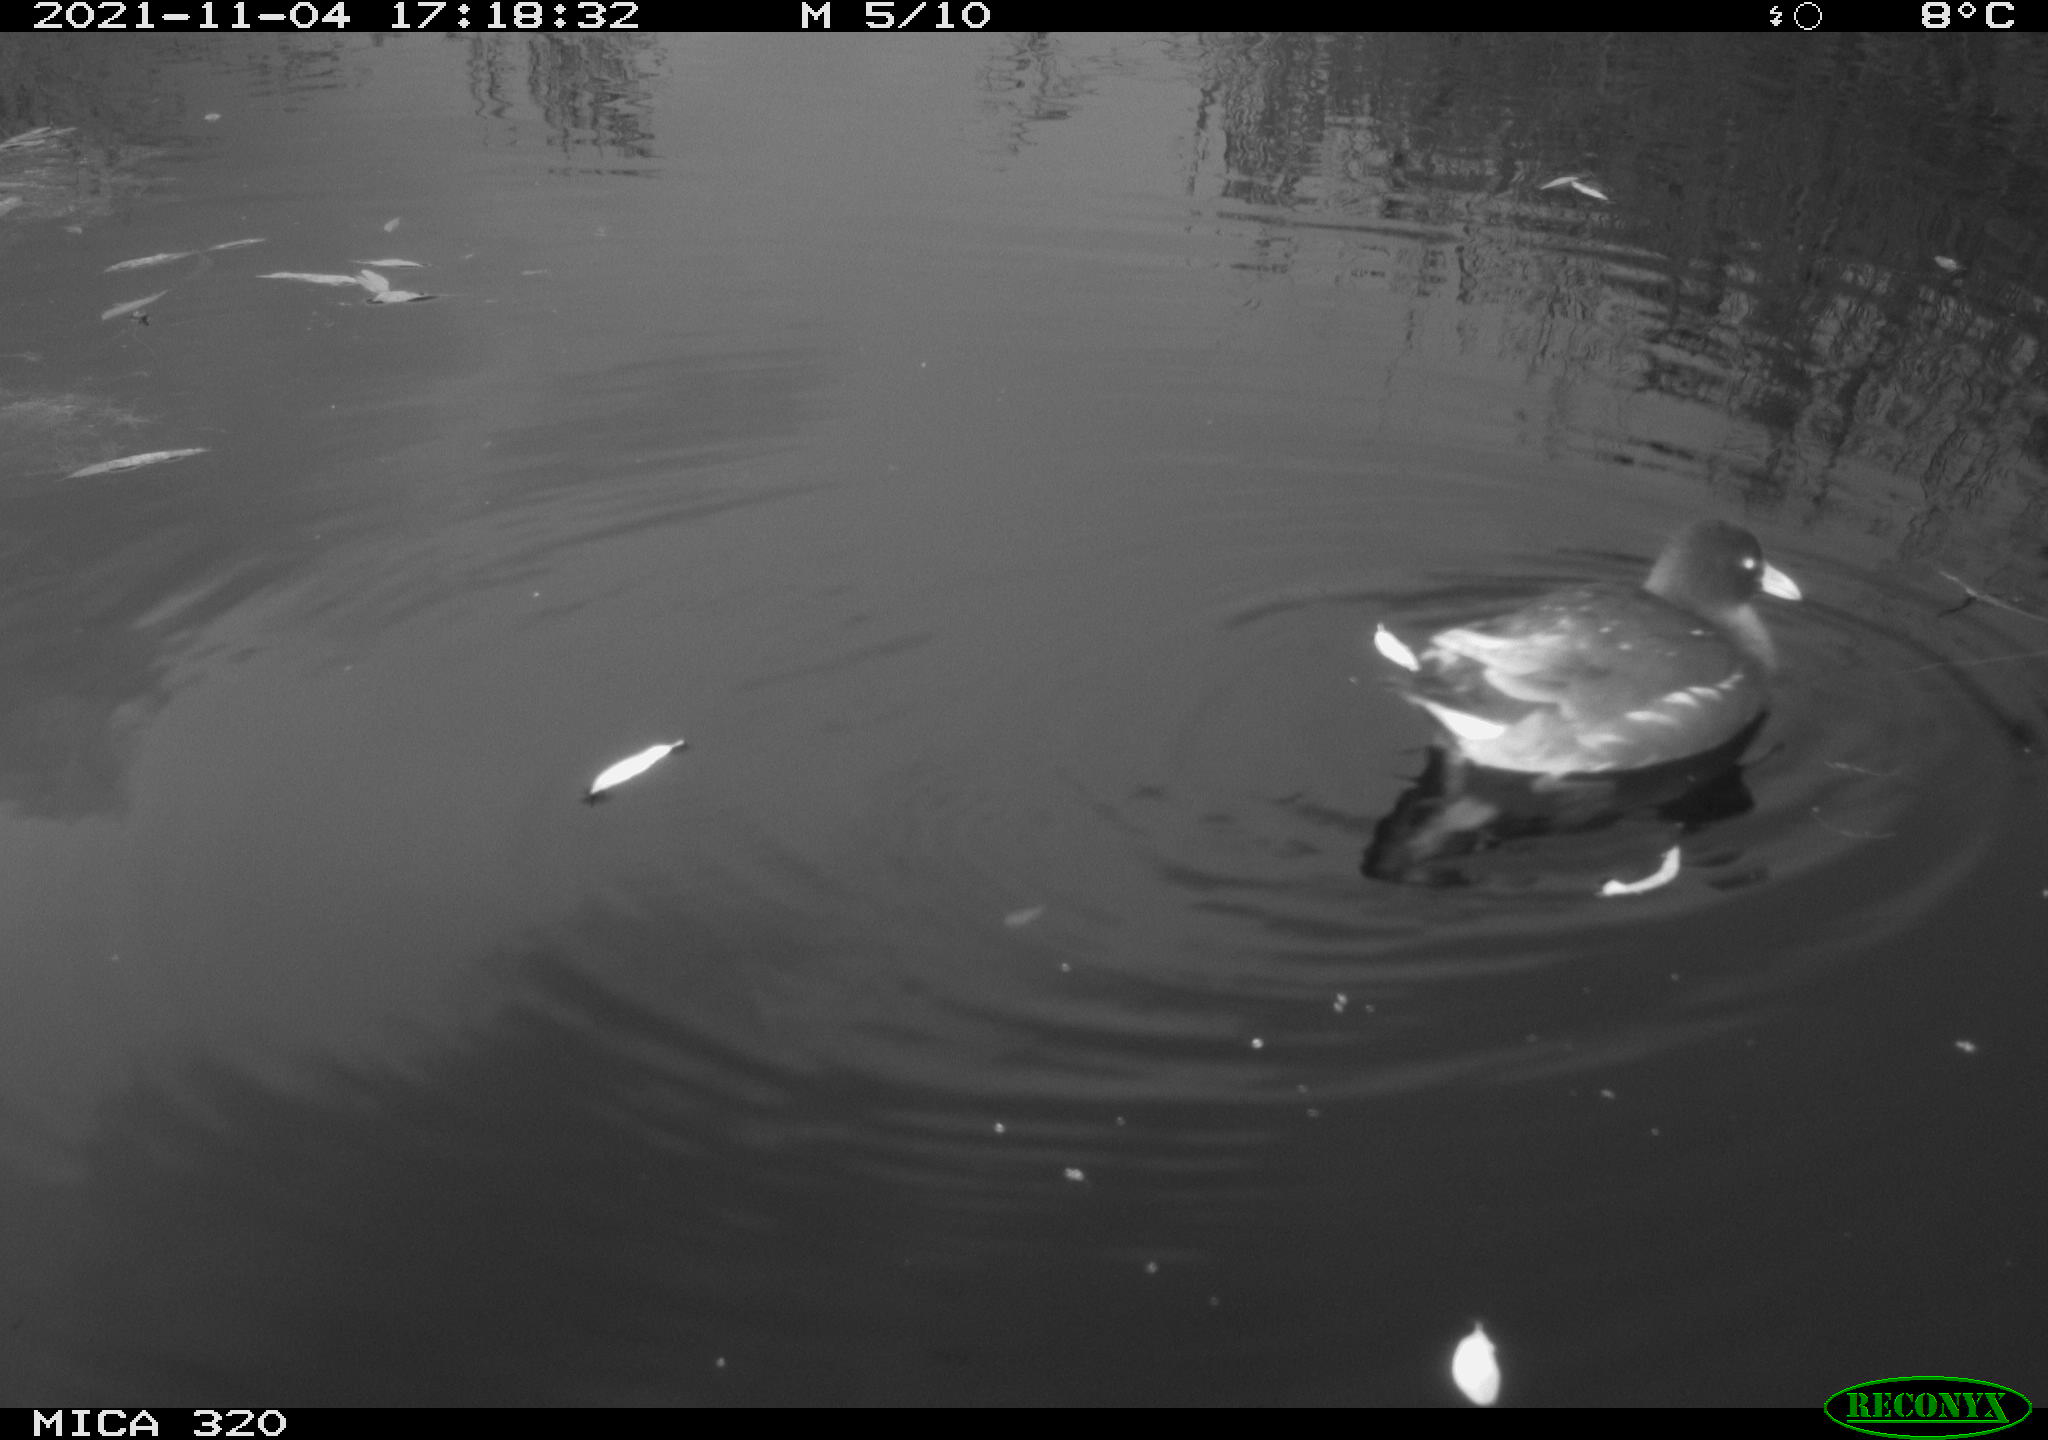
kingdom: Animalia
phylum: Chordata
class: Aves
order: Gruiformes
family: Rallidae
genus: Gallinula
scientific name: Gallinula chloropus
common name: Common moorhen
